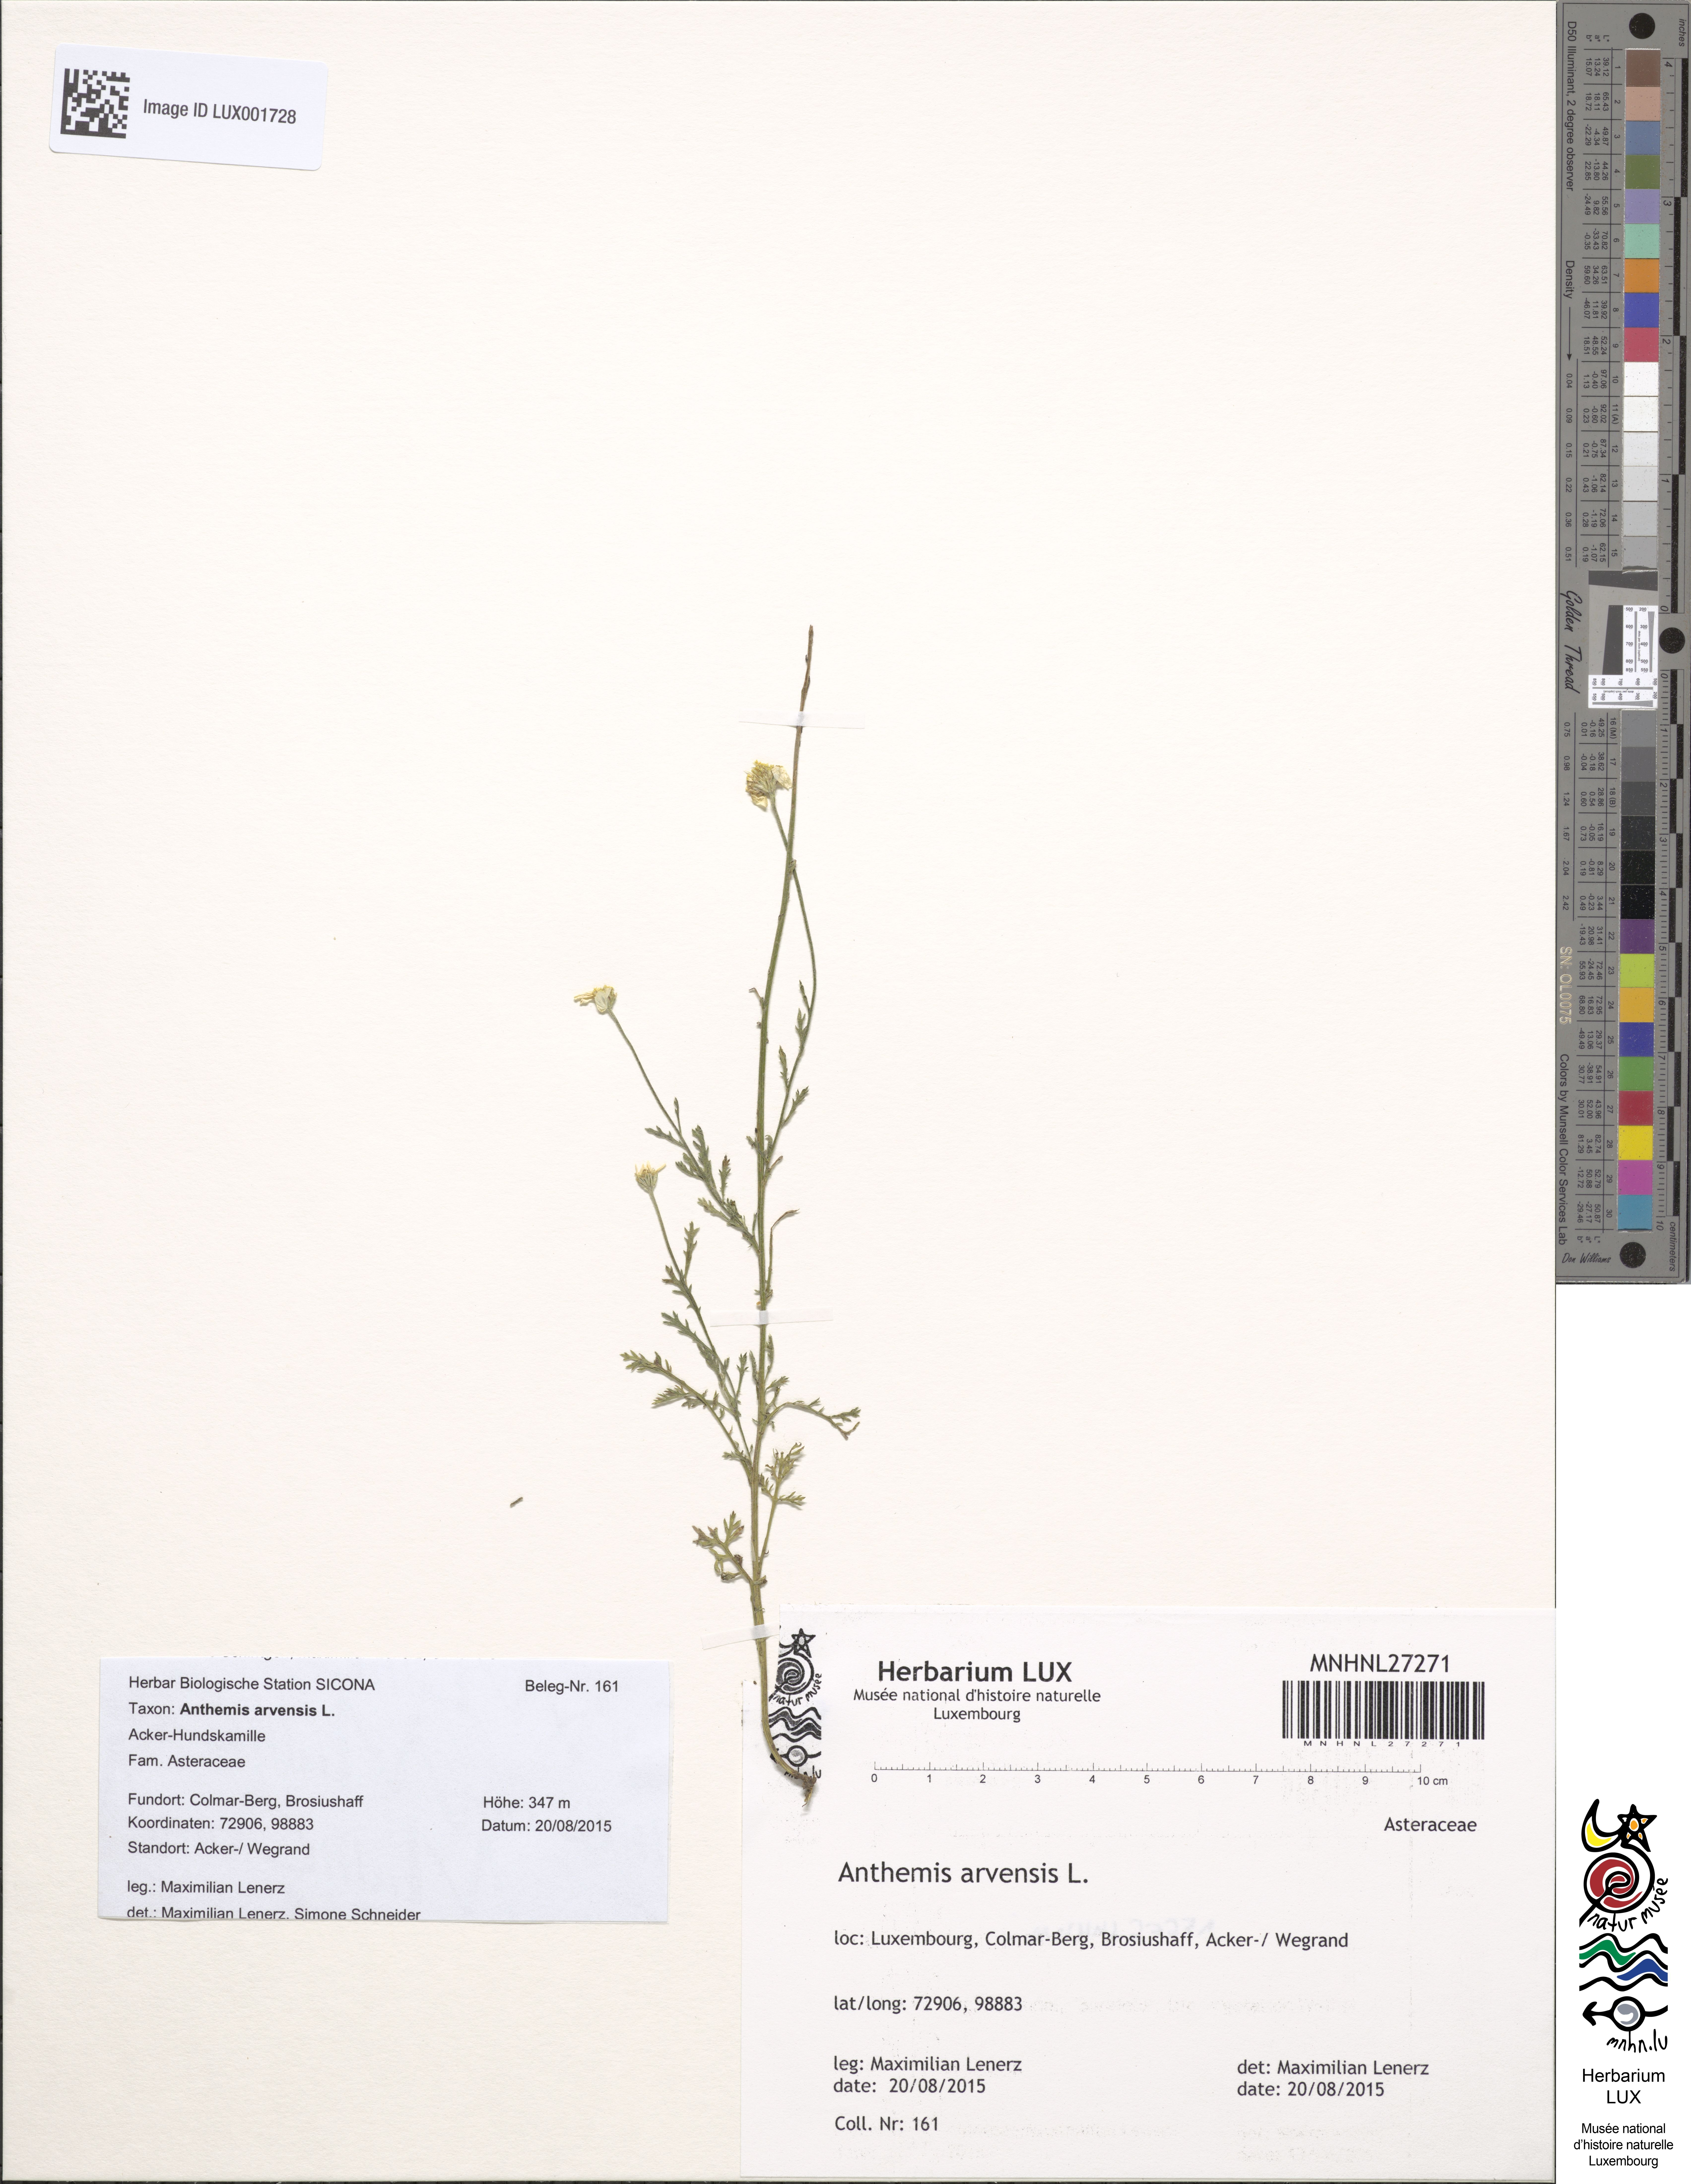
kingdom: Plantae
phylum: Tracheophyta
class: Magnoliopsida
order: Asterales
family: Asteraceae
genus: Anthemis
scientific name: Anthemis arvensis
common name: Corn chamomile
